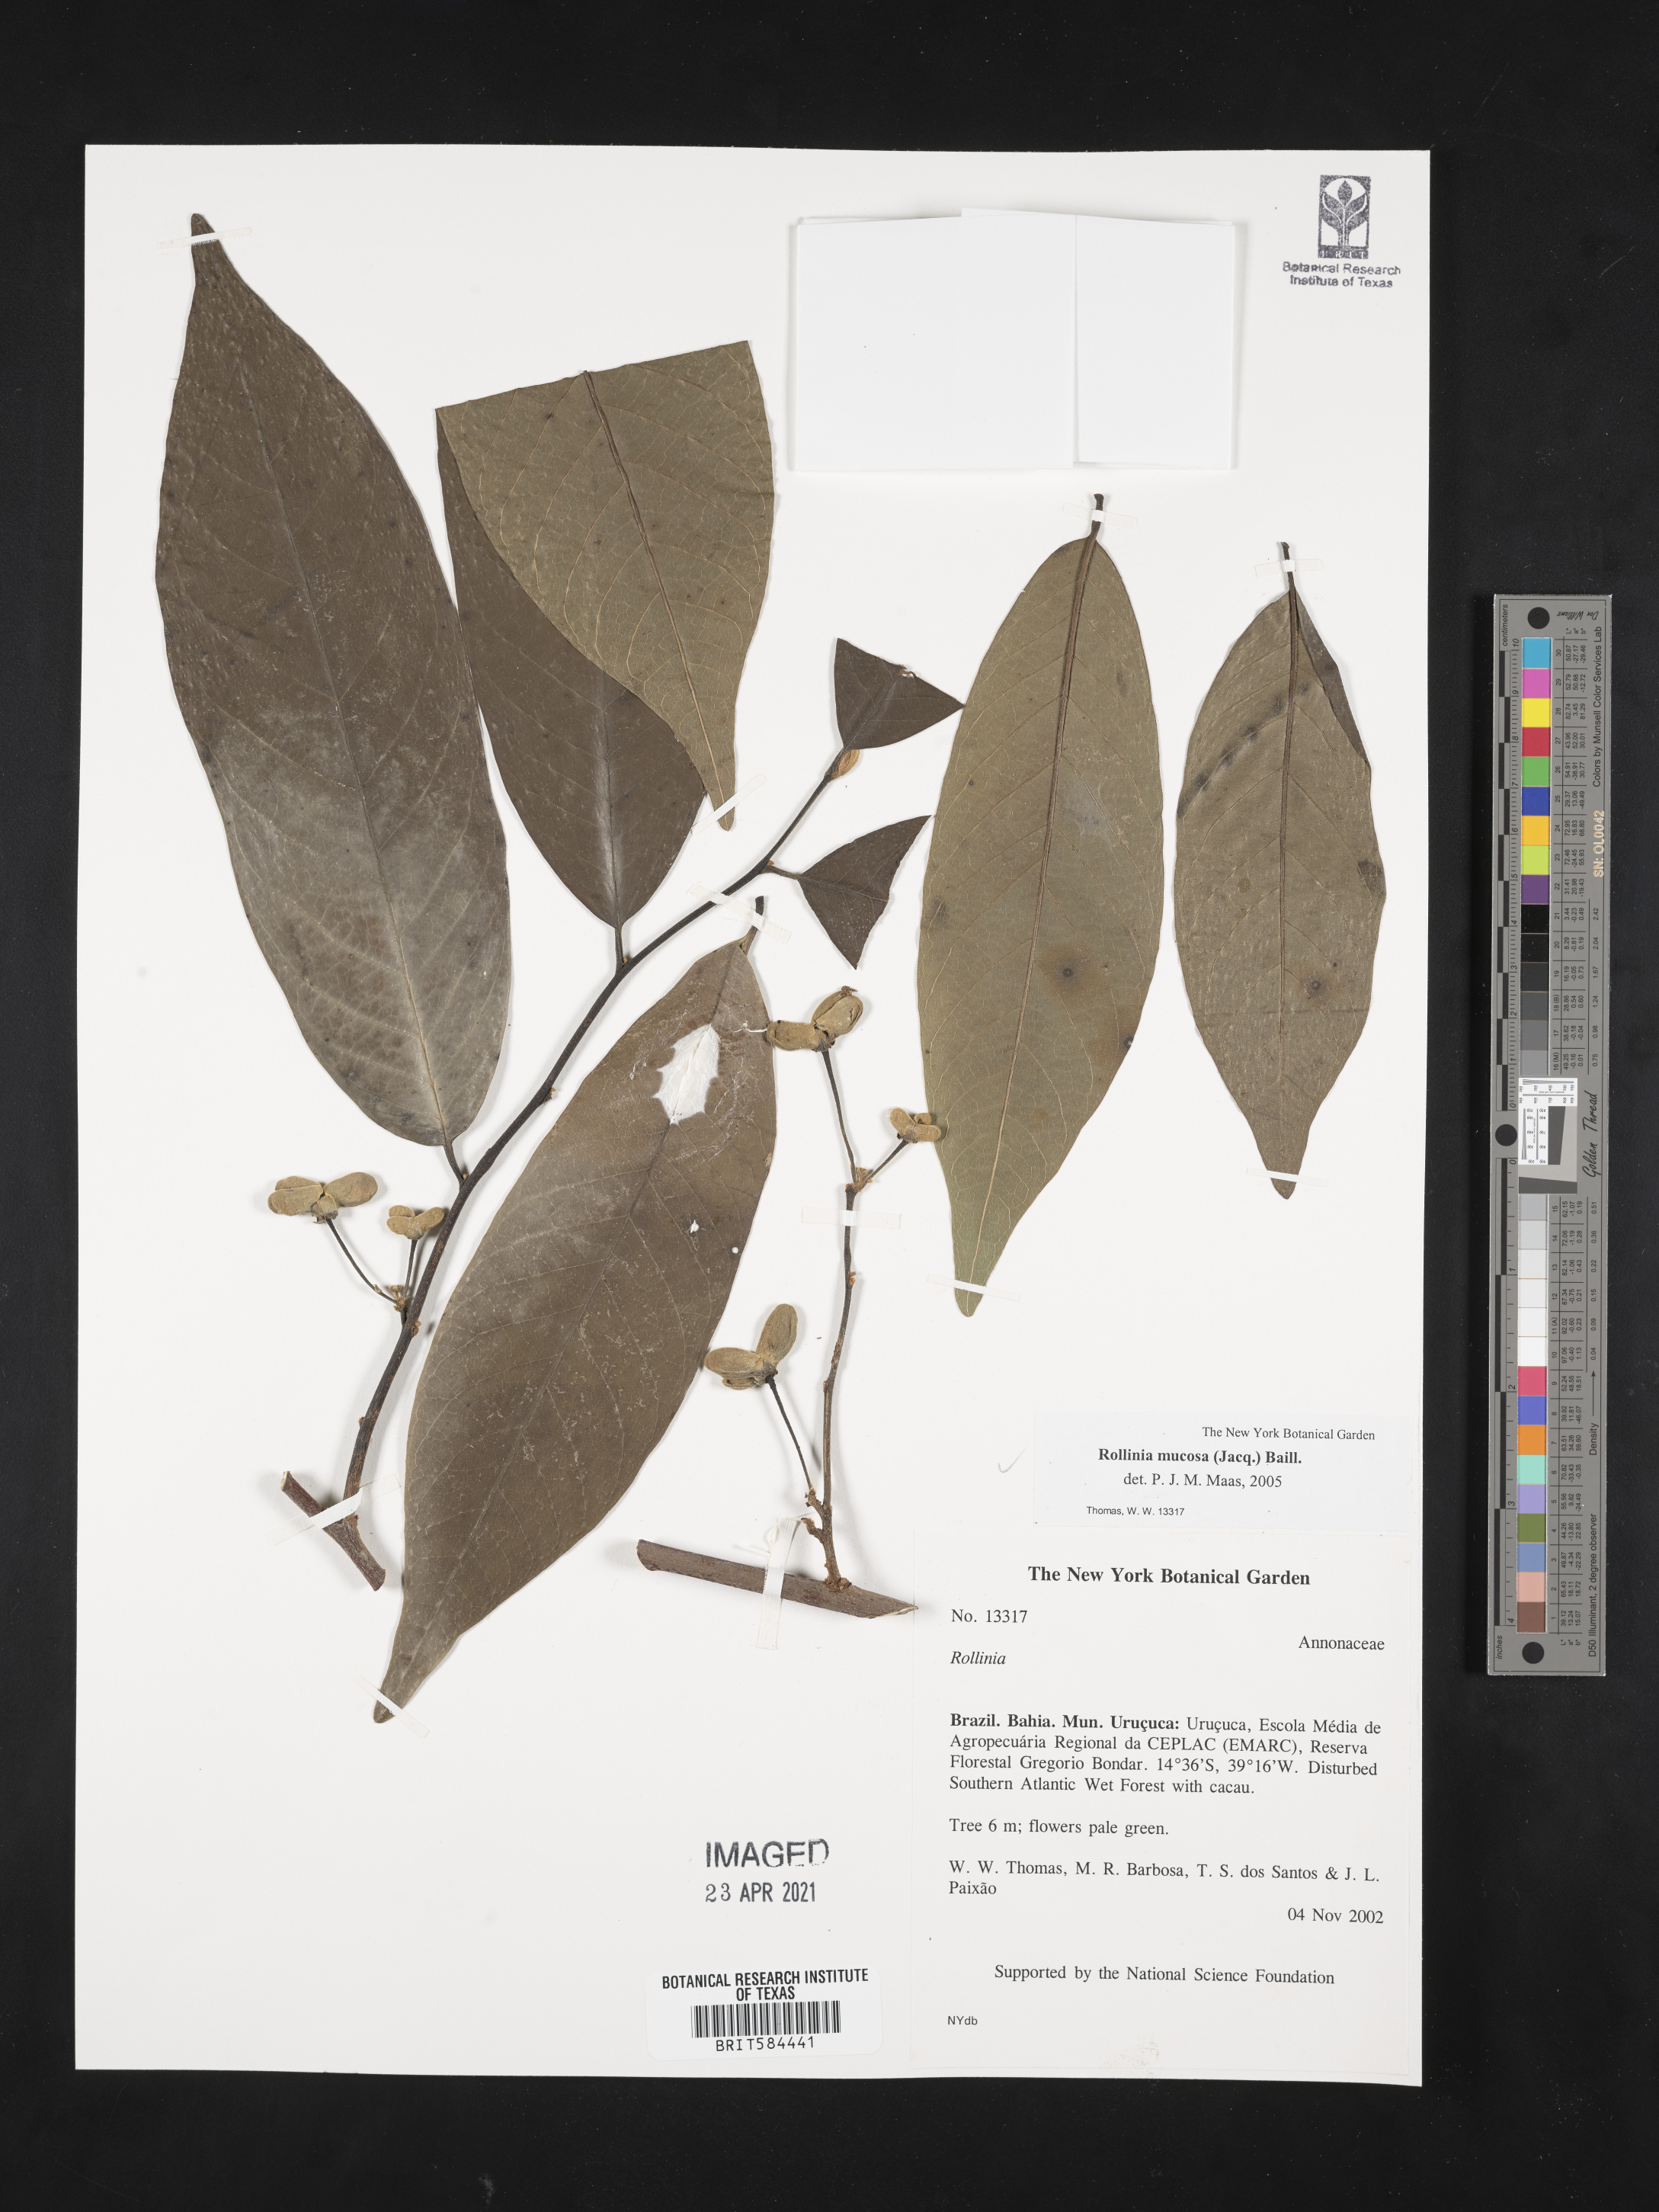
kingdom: Plantae
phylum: Tracheophyta
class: Magnoliopsida
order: Magnoliales
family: Annonaceae
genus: Annona
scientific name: Annona mucosa
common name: Sugar apple
